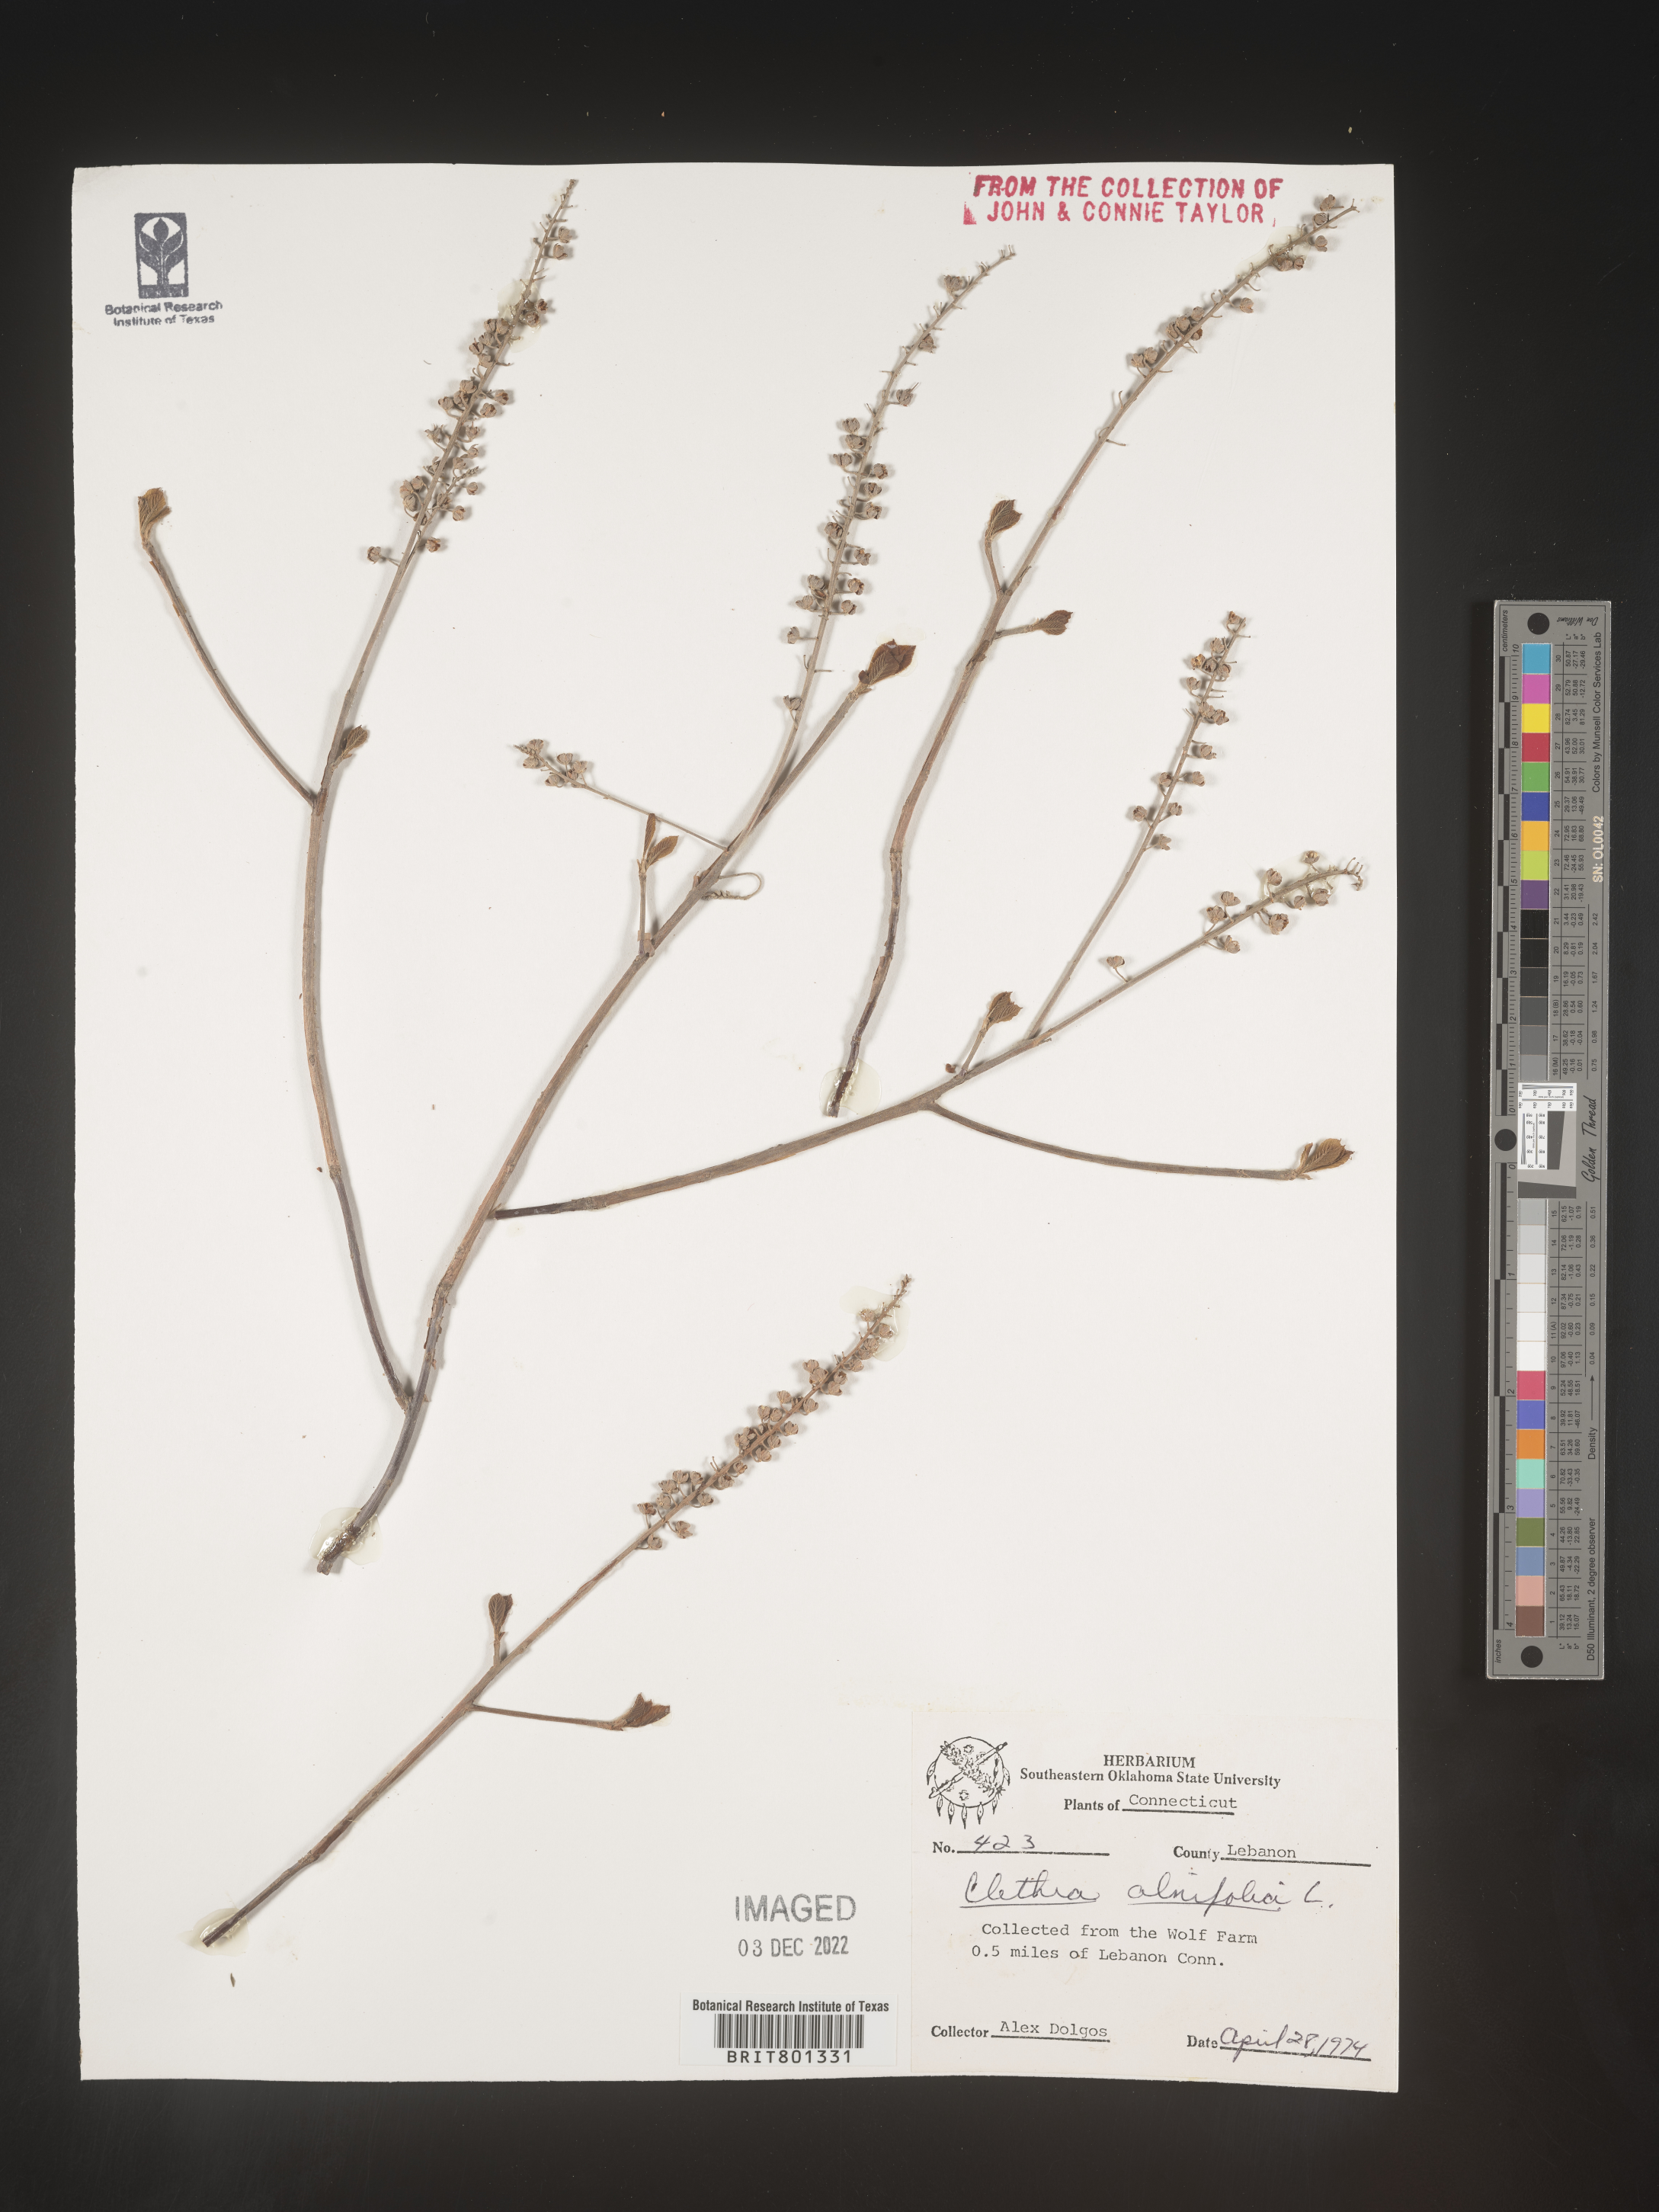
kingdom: Plantae
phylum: Tracheophyta
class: Magnoliopsida
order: Ericales
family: Clethraceae
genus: Clethra
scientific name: Clethra alnifolia
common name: Sweet pepperbush
